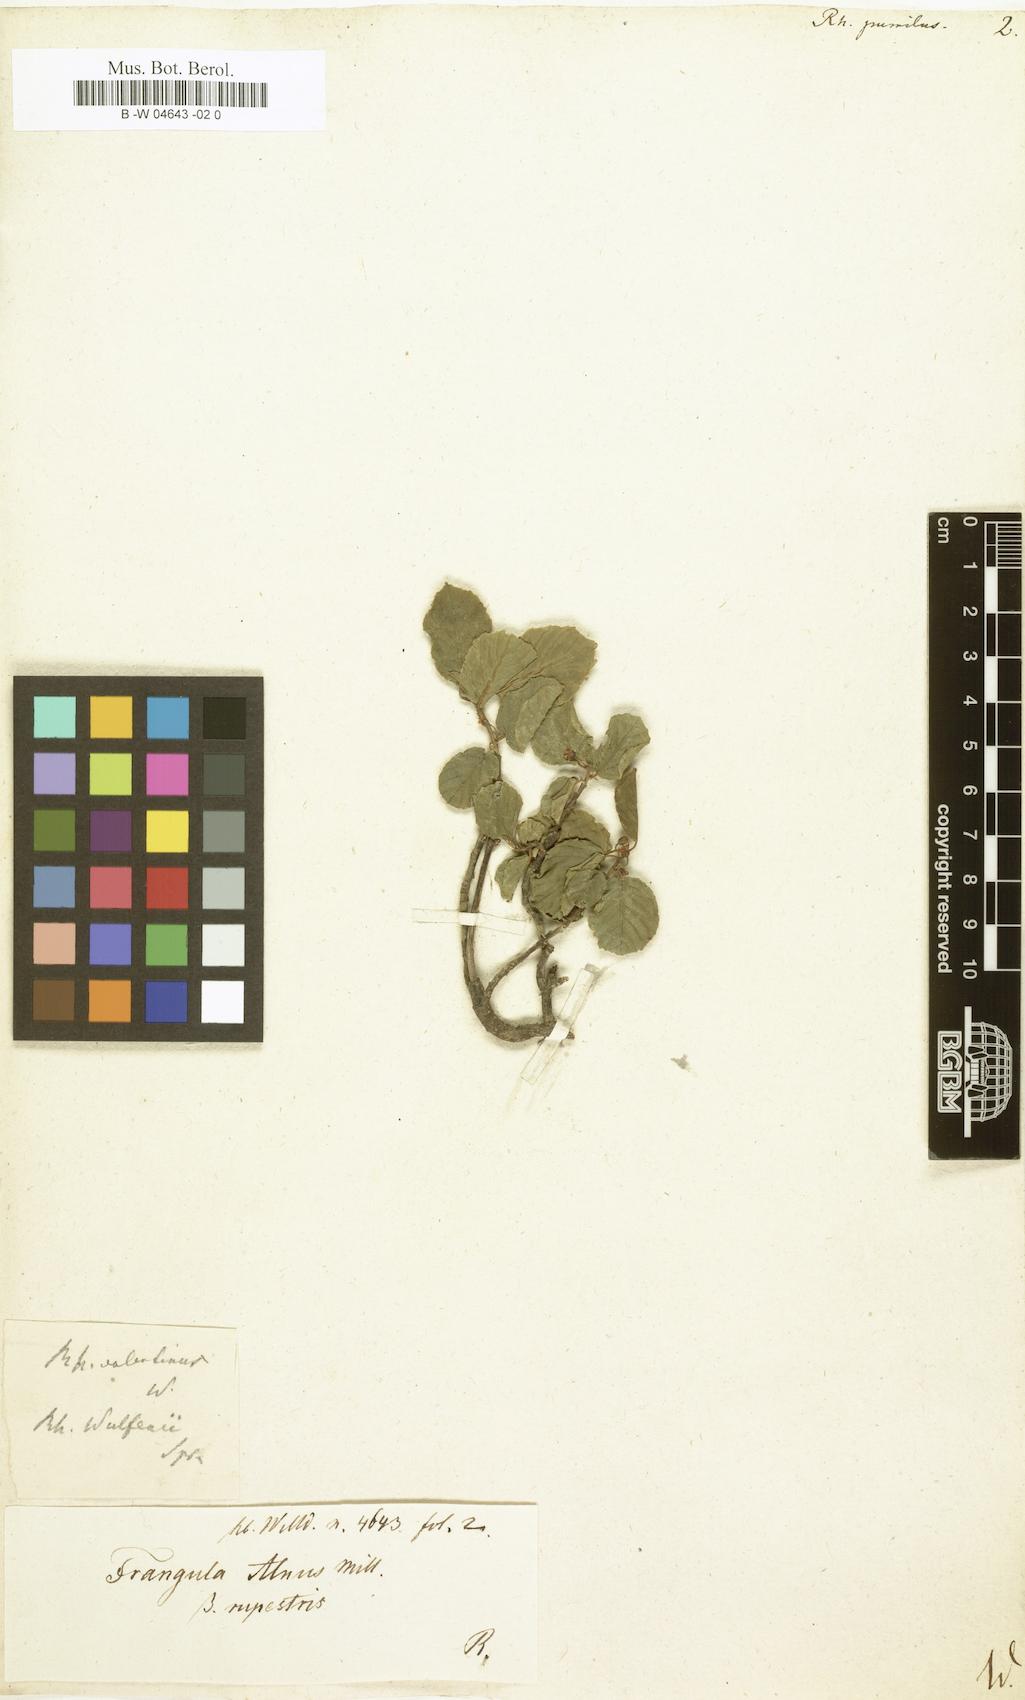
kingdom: Plantae
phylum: Tracheophyta
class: Magnoliopsida
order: Rosales
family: Rhamnaceae
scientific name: Rhamnaceae
